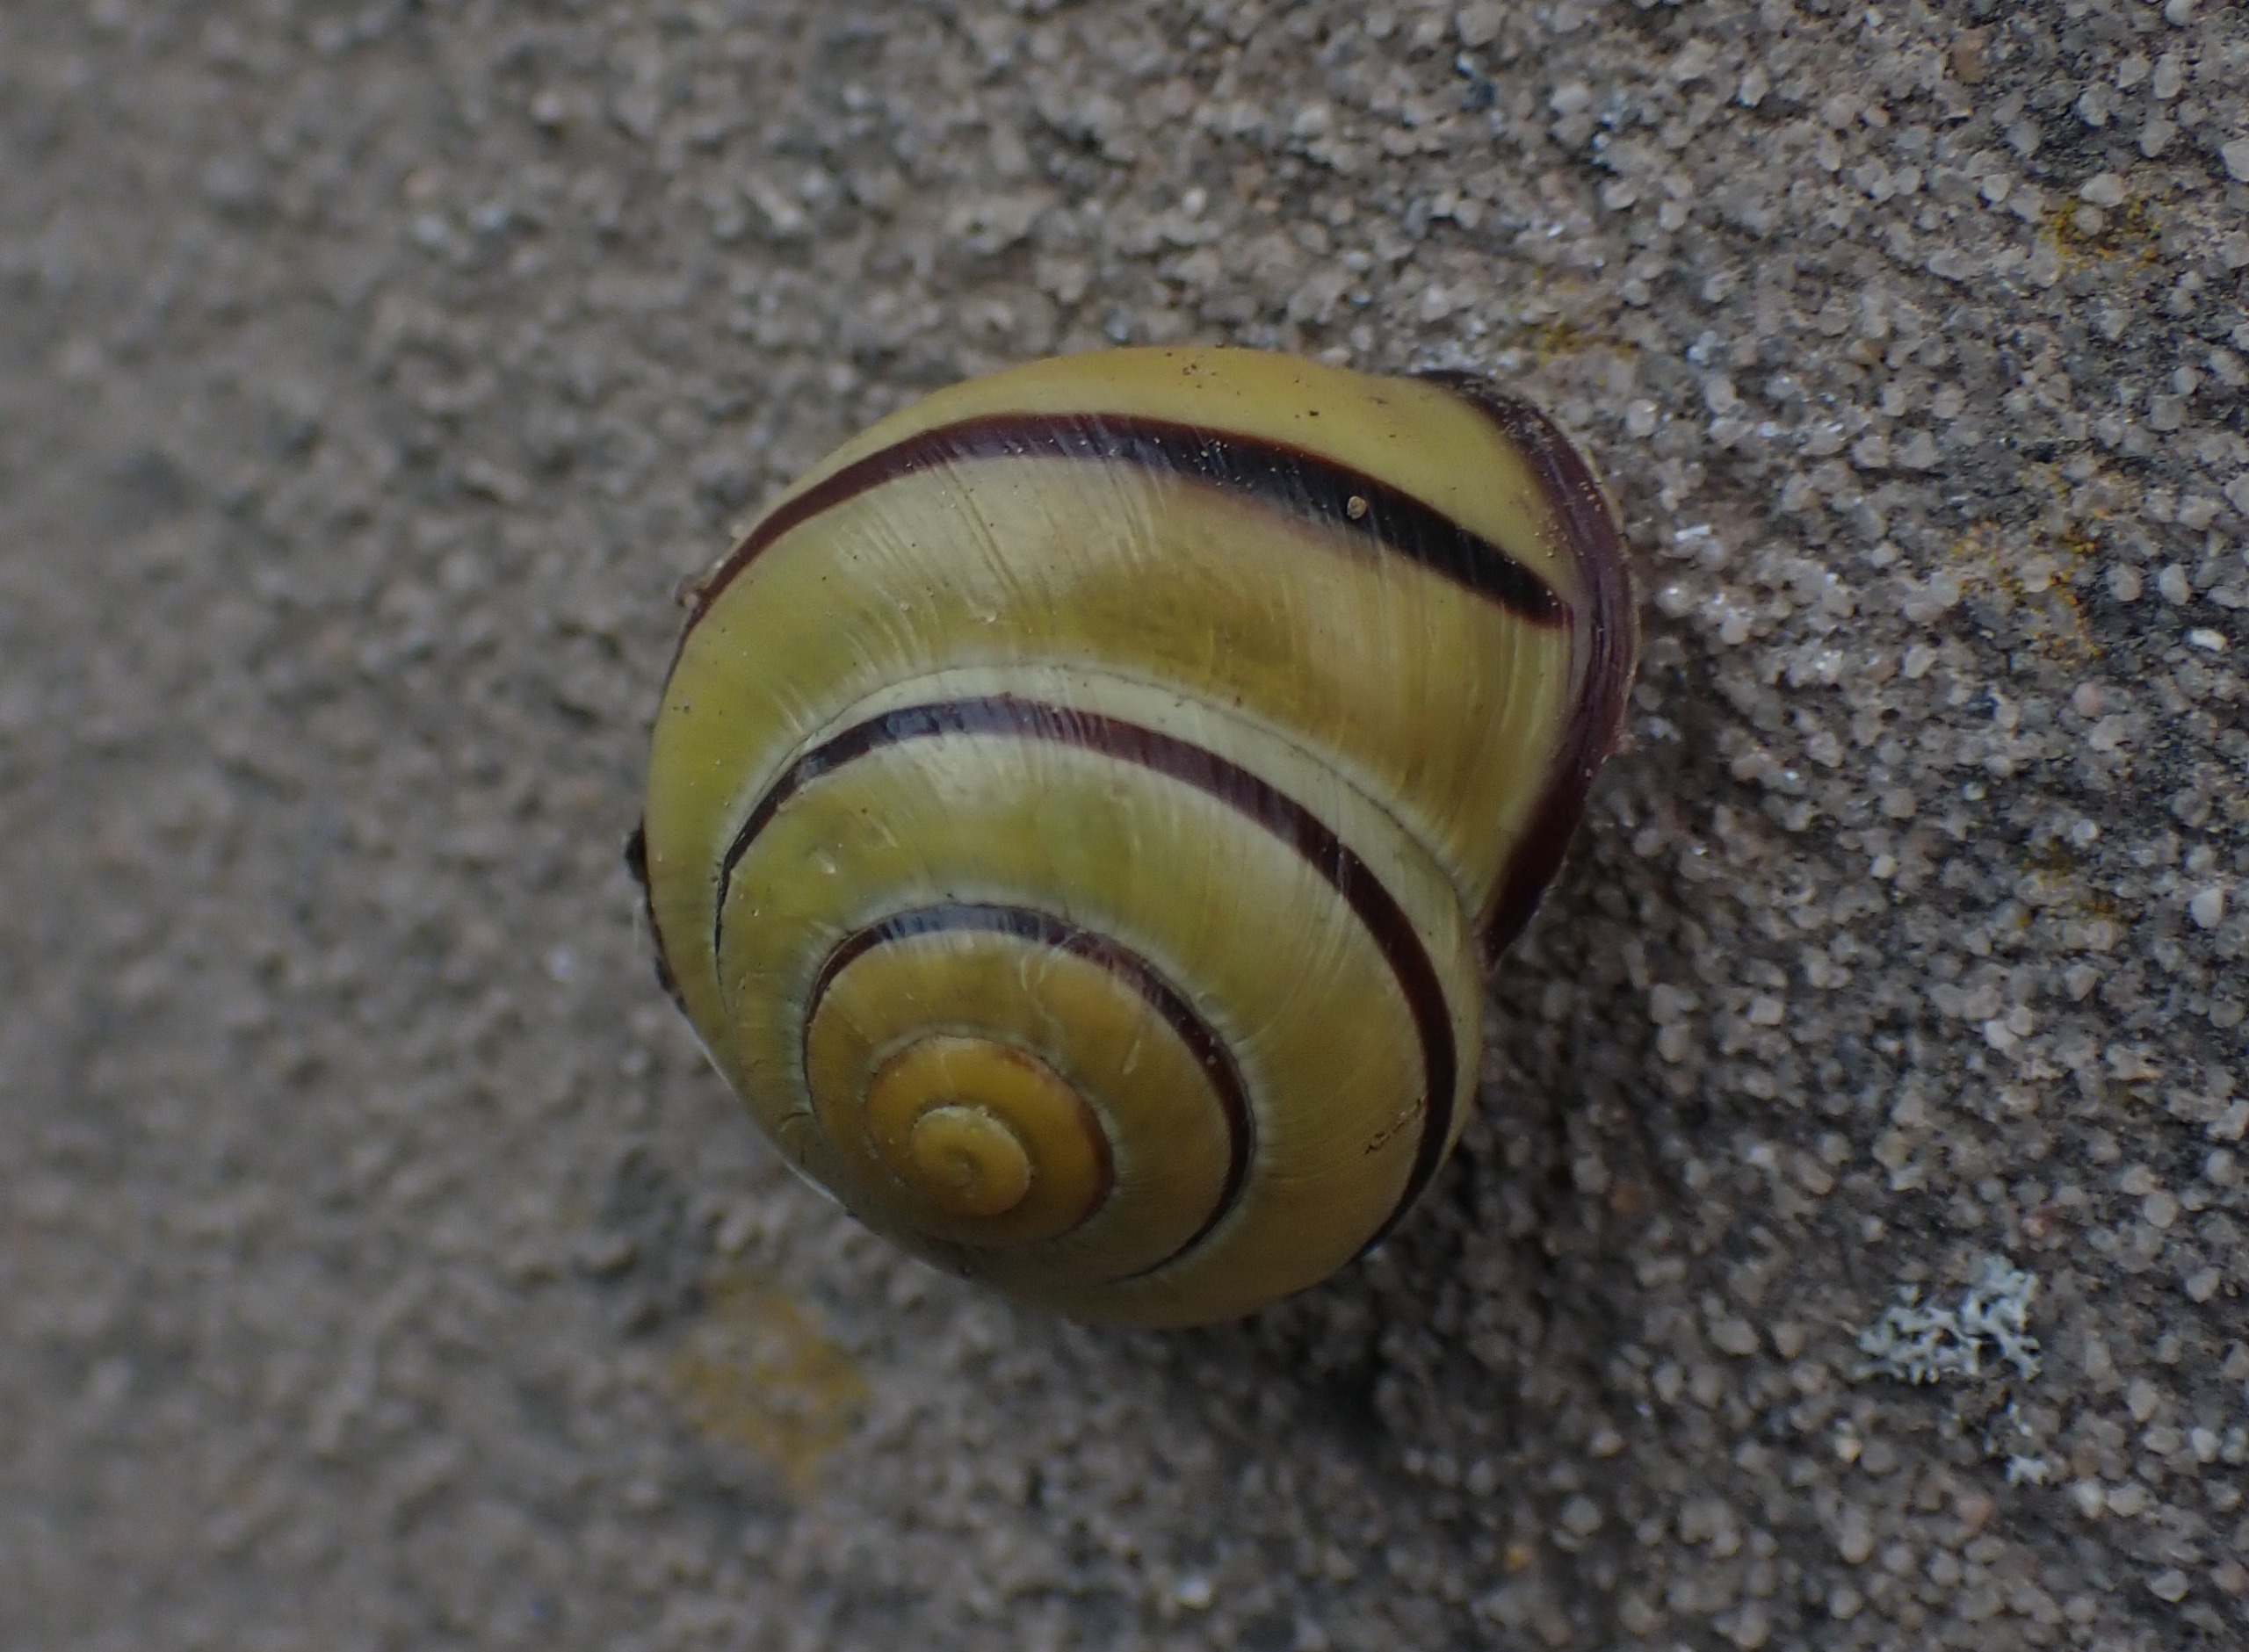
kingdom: Animalia
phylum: Mollusca
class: Gastropoda
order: Stylommatophora
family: Helicidae
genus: Cepaea
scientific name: Cepaea nemoralis
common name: Lundsnegl
